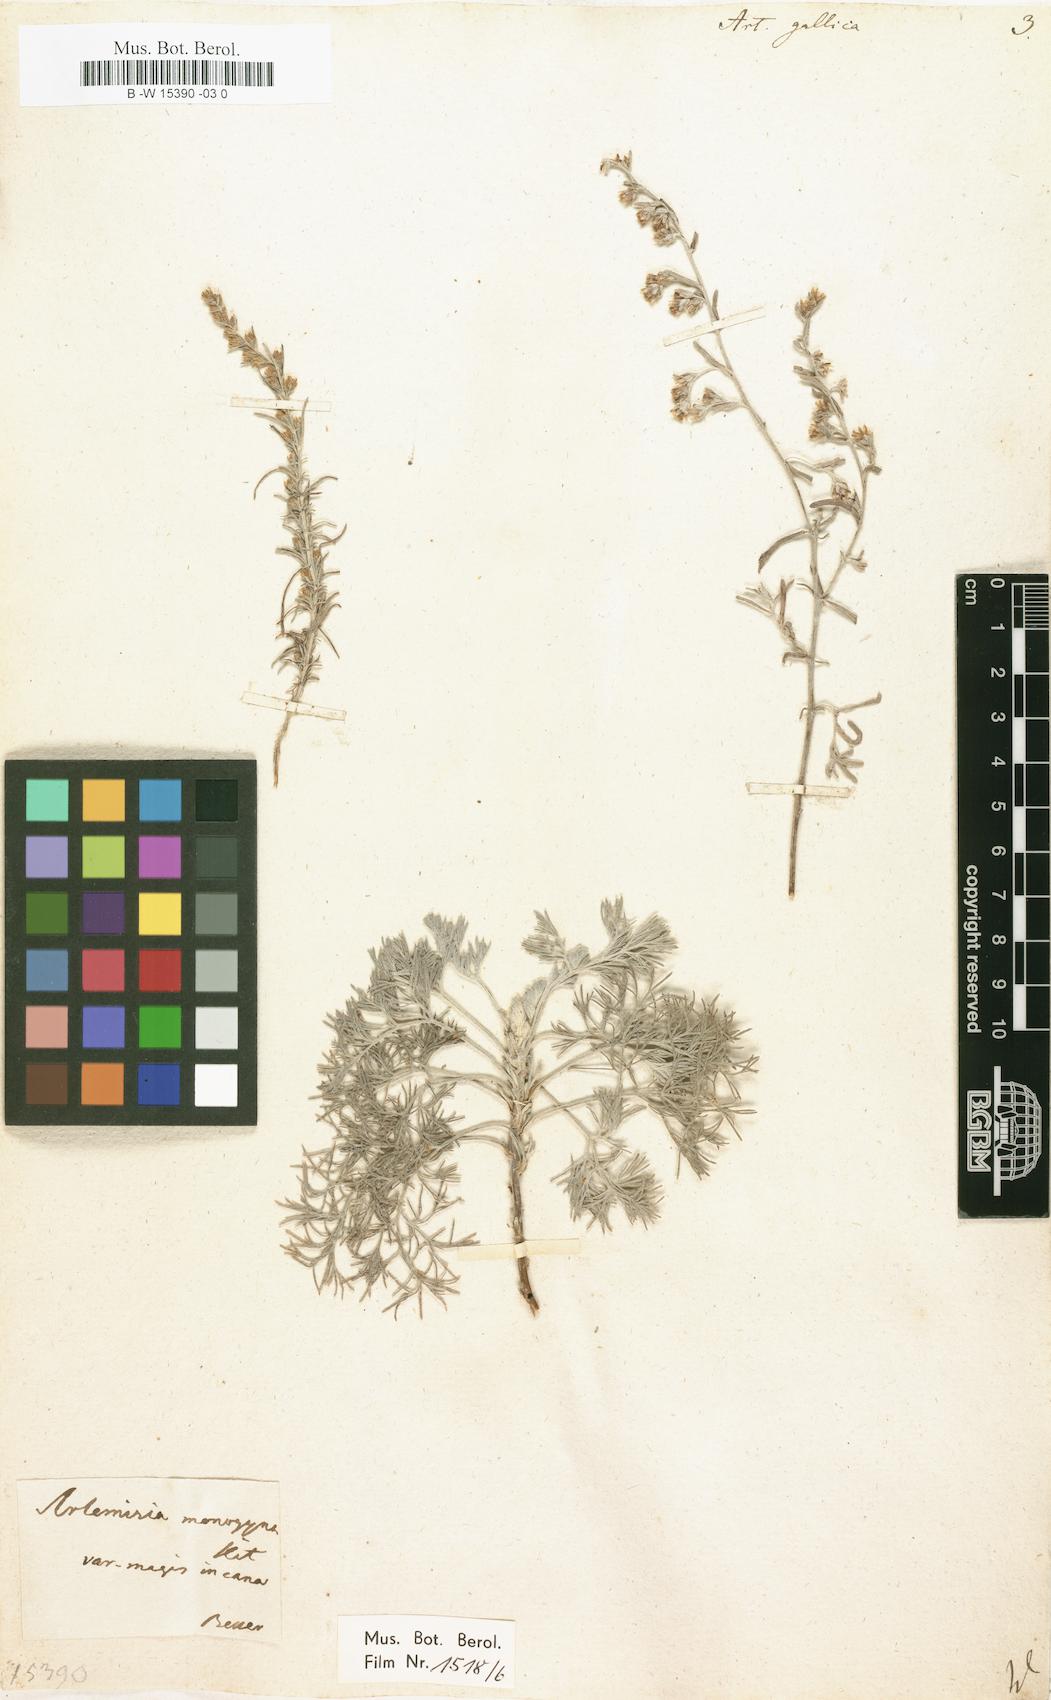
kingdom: Plantae
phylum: Tracheophyta
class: Magnoliopsida
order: Asterales
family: Asteraceae
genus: Artemisia
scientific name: Artemisia caerulescens
